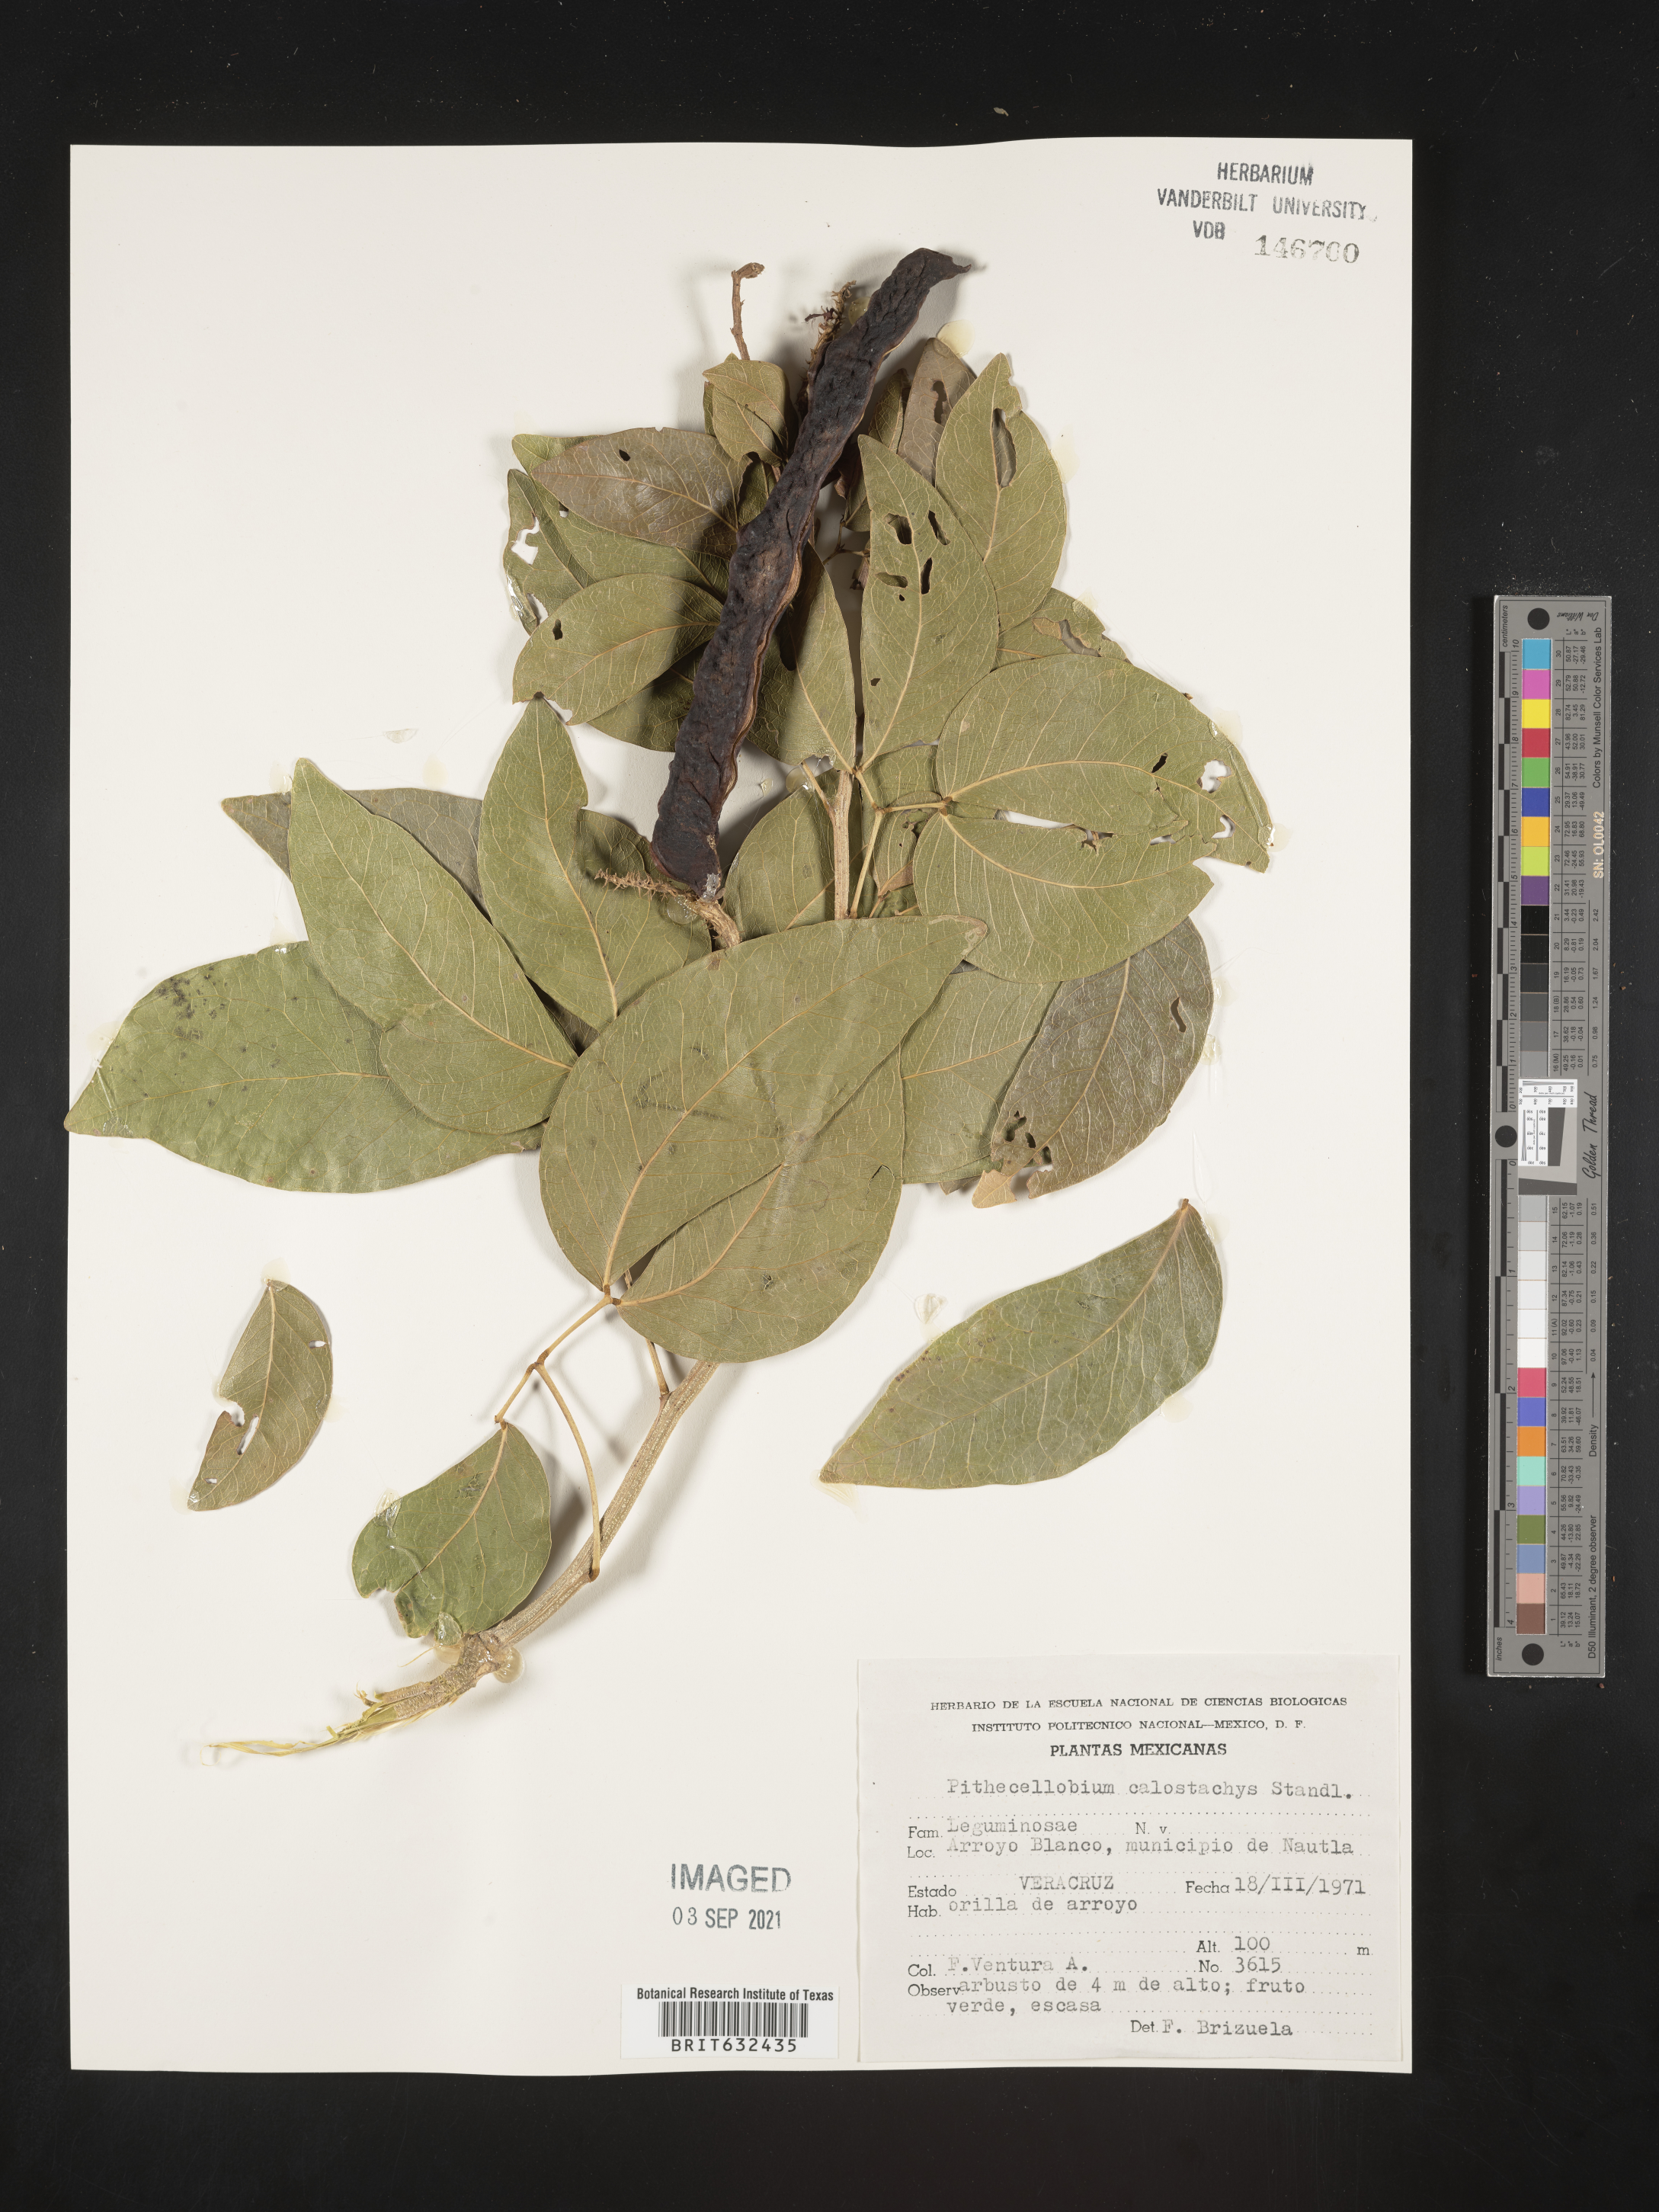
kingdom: Plantae
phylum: Tracheophyta
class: Magnoliopsida
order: Fabales
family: Fabaceae
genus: Pithecellobium
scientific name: Pithecellobium
